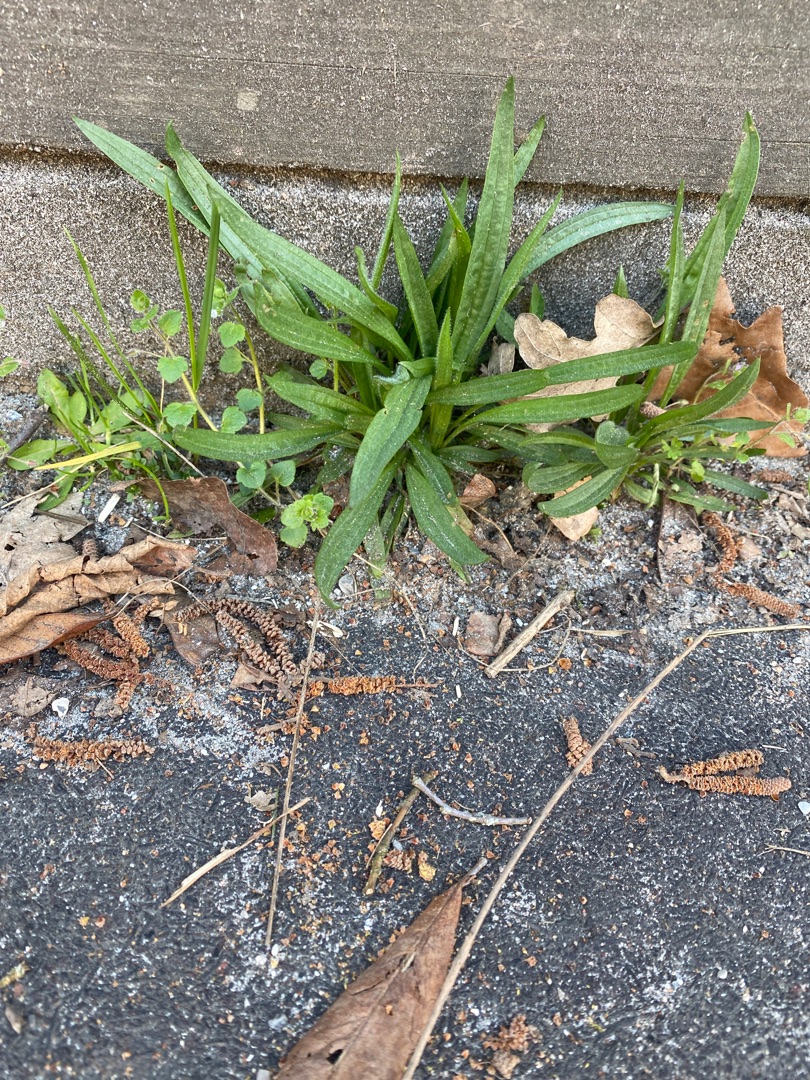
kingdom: Plantae
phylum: Tracheophyta
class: Magnoliopsida
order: Lamiales
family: Plantaginaceae
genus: Plantago
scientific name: Plantago lanceolata
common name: Lancet-vejbred
